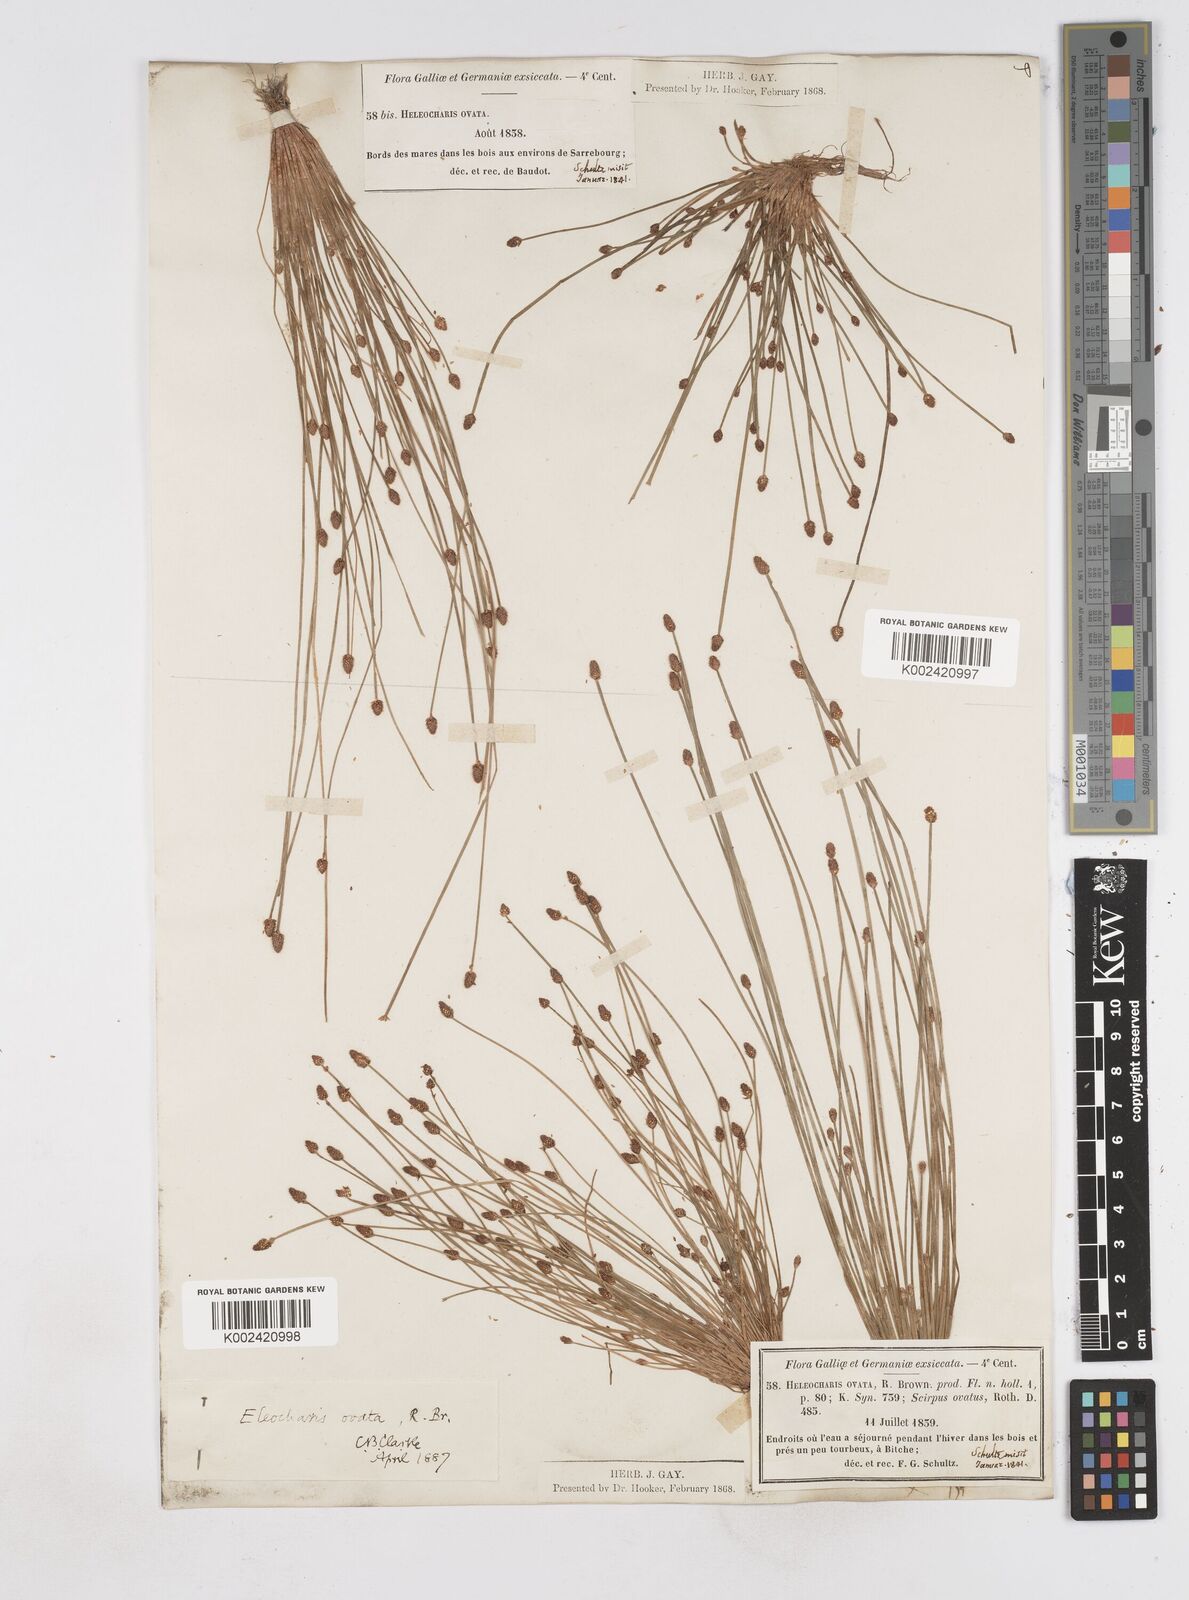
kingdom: Plantae
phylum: Tracheophyta
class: Liliopsida
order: Poales
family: Cyperaceae
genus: Eleocharis
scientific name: Eleocharis ovata
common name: Oval spike-rush
